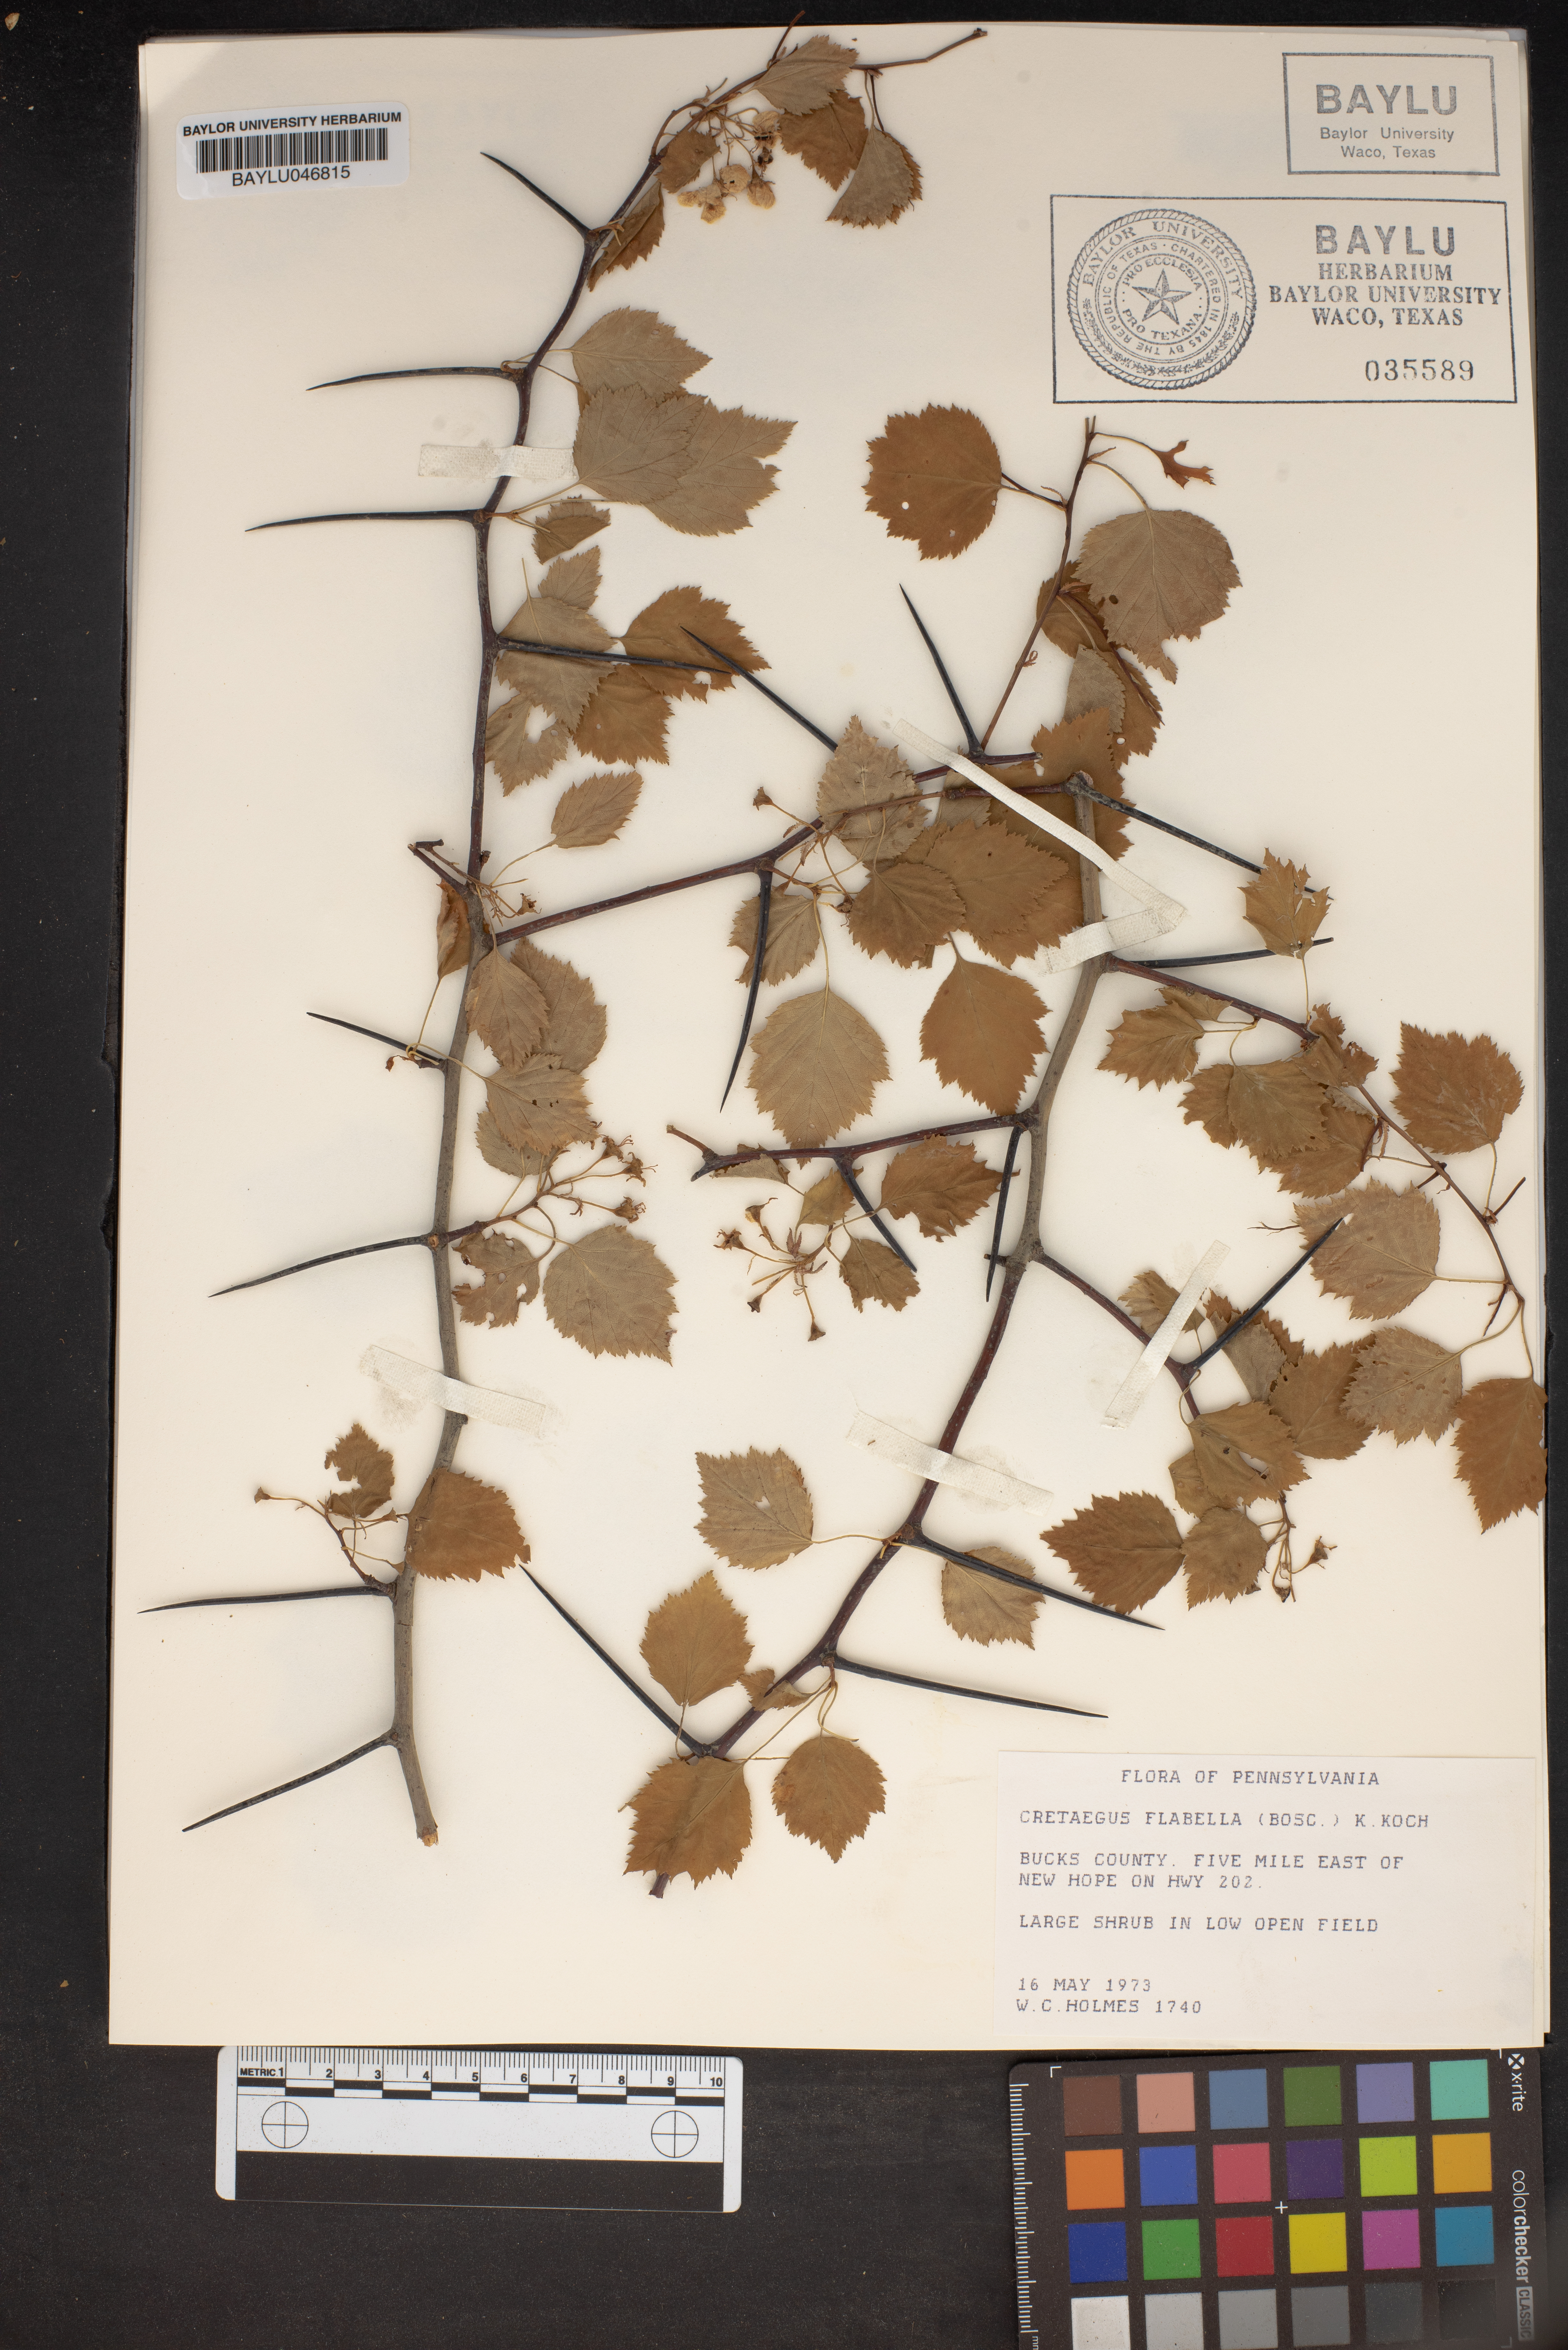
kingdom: Plantae
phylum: Tracheophyta
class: Magnoliopsida
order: Rosales
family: Rosaceae
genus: Crataegus
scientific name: Crataegus flabellata
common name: Bosc's hawthorn
